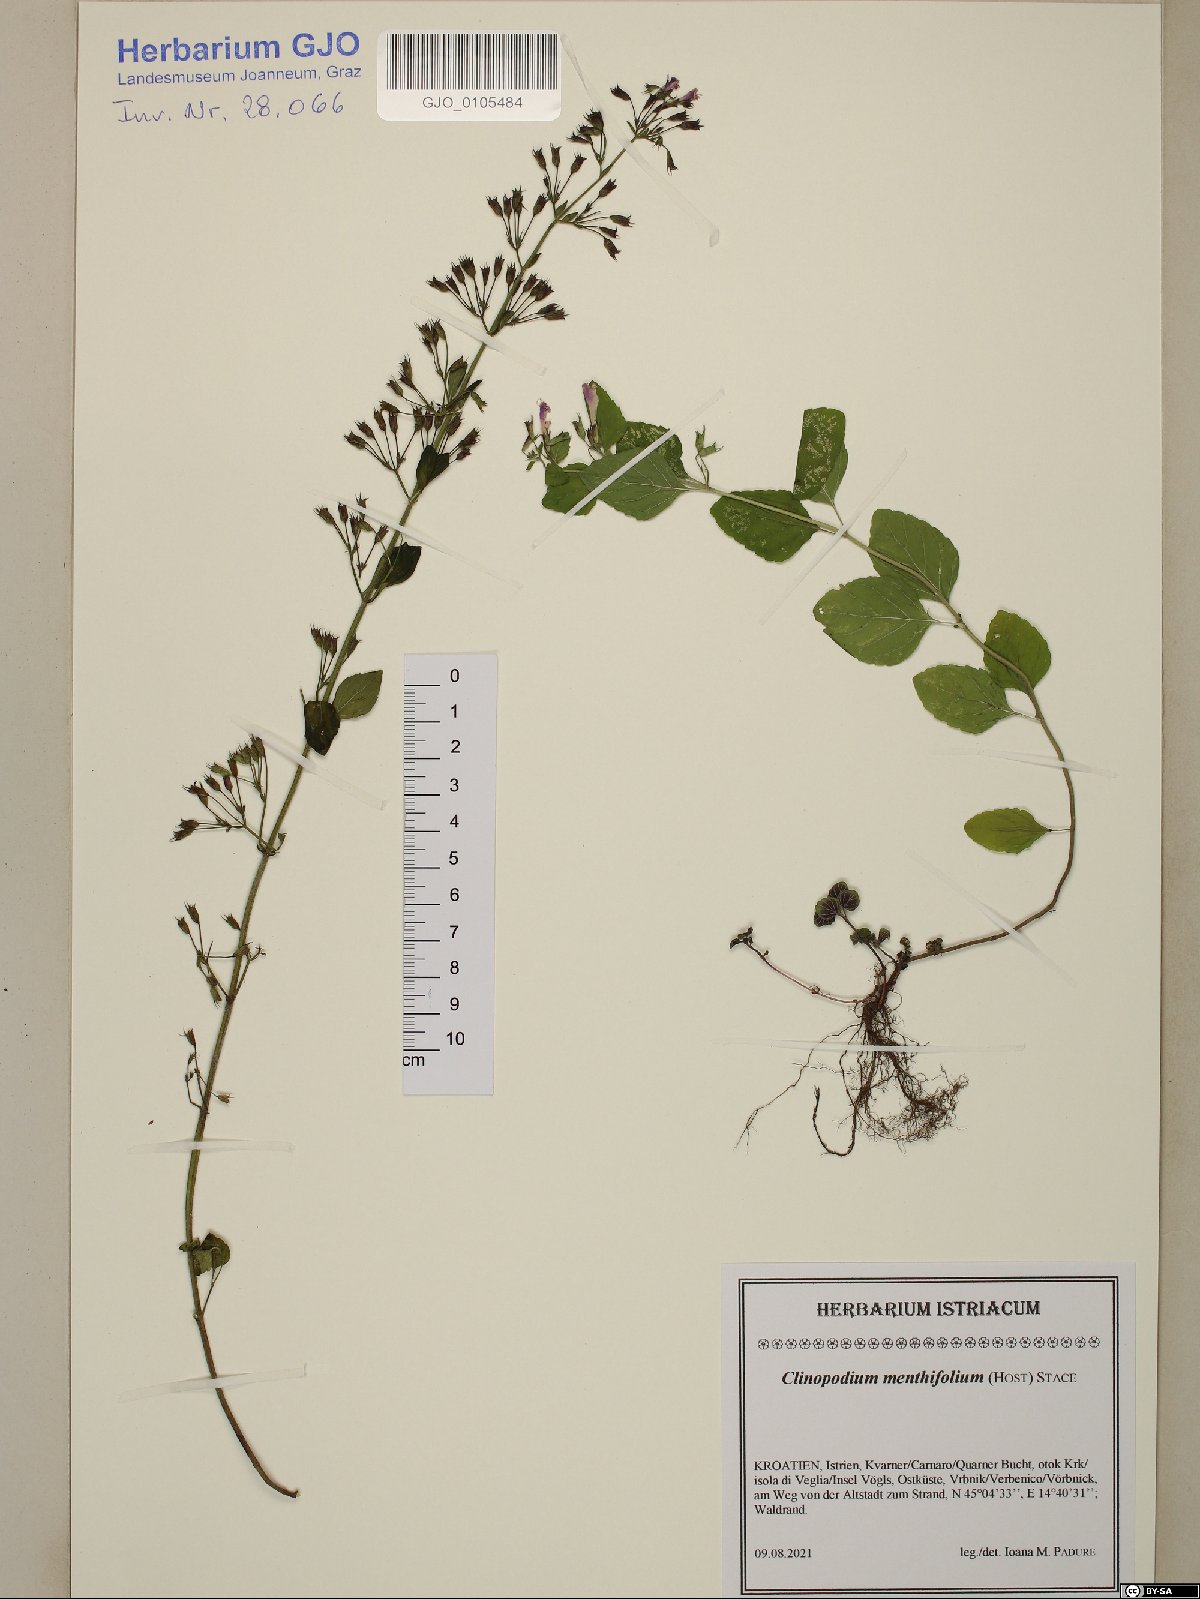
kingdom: Plantae
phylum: Tracheophyta
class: Magnoliopsida
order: Lamiales
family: Lamiaceae
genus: Clinopodium
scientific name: Clinopodium menthifolium
